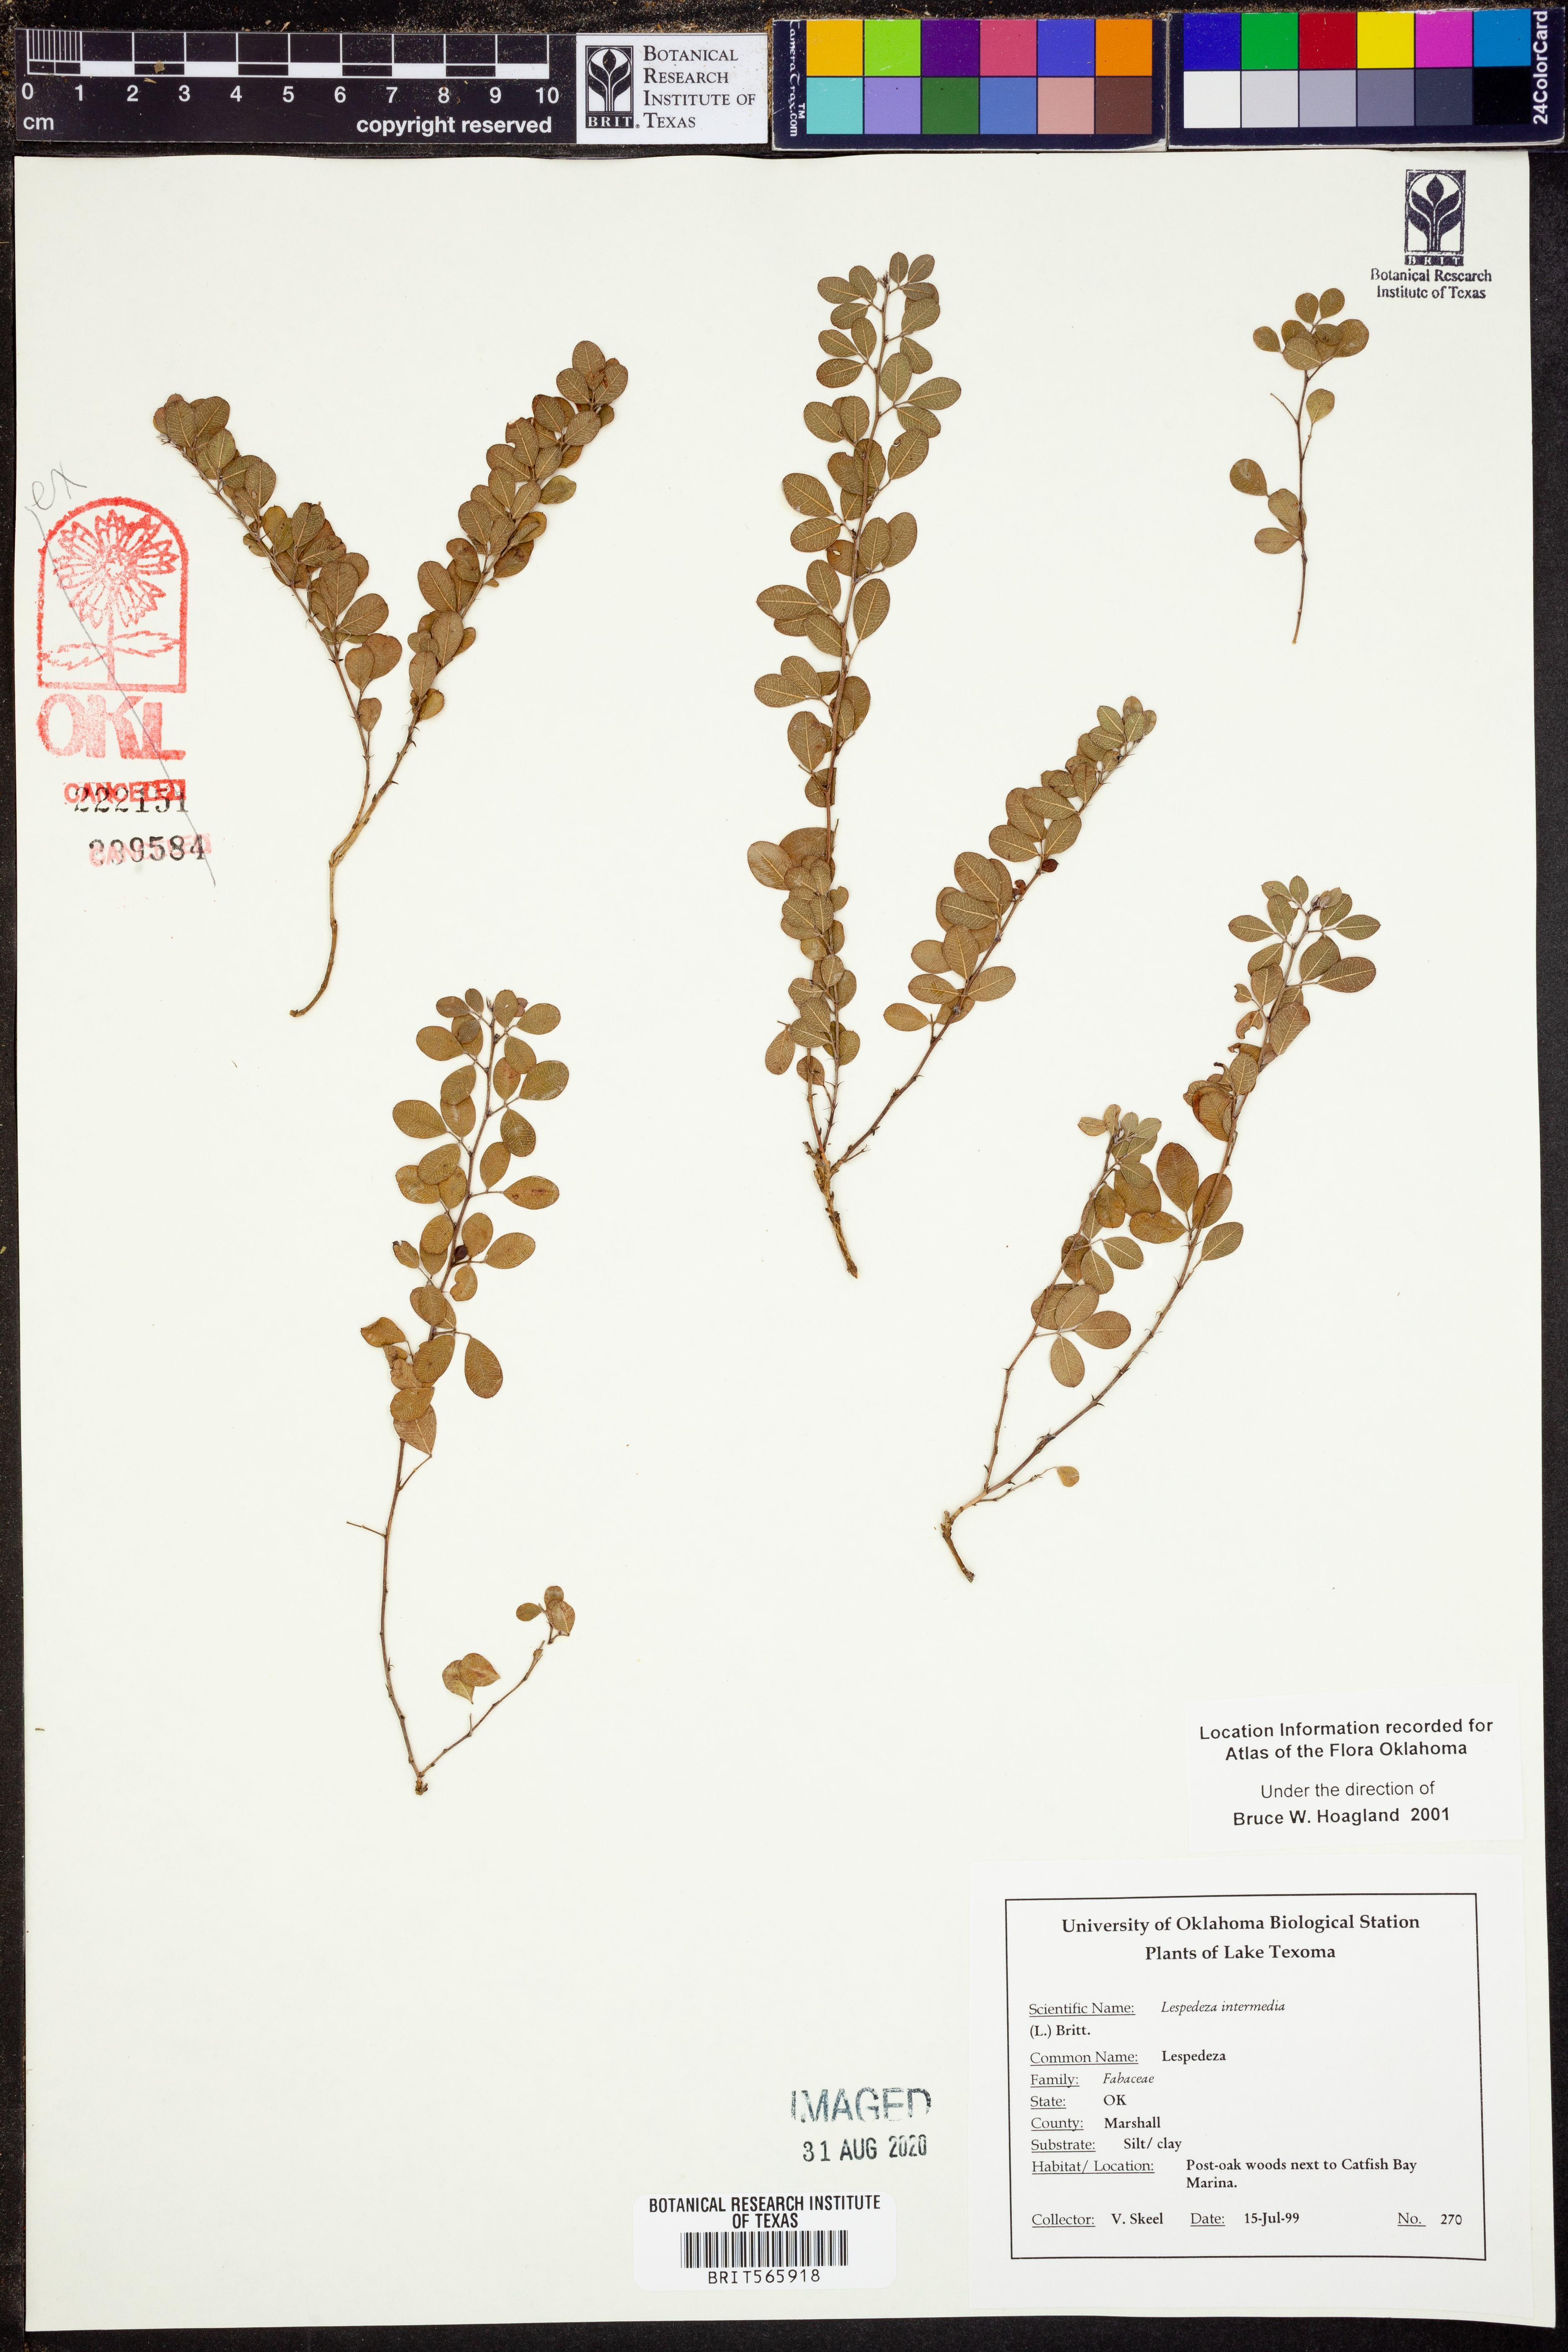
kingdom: Plantae
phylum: Tracheophyta
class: Magnoliopsida
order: Fabales
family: Fabaceae
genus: Lespedeza
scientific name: Lespedeza
